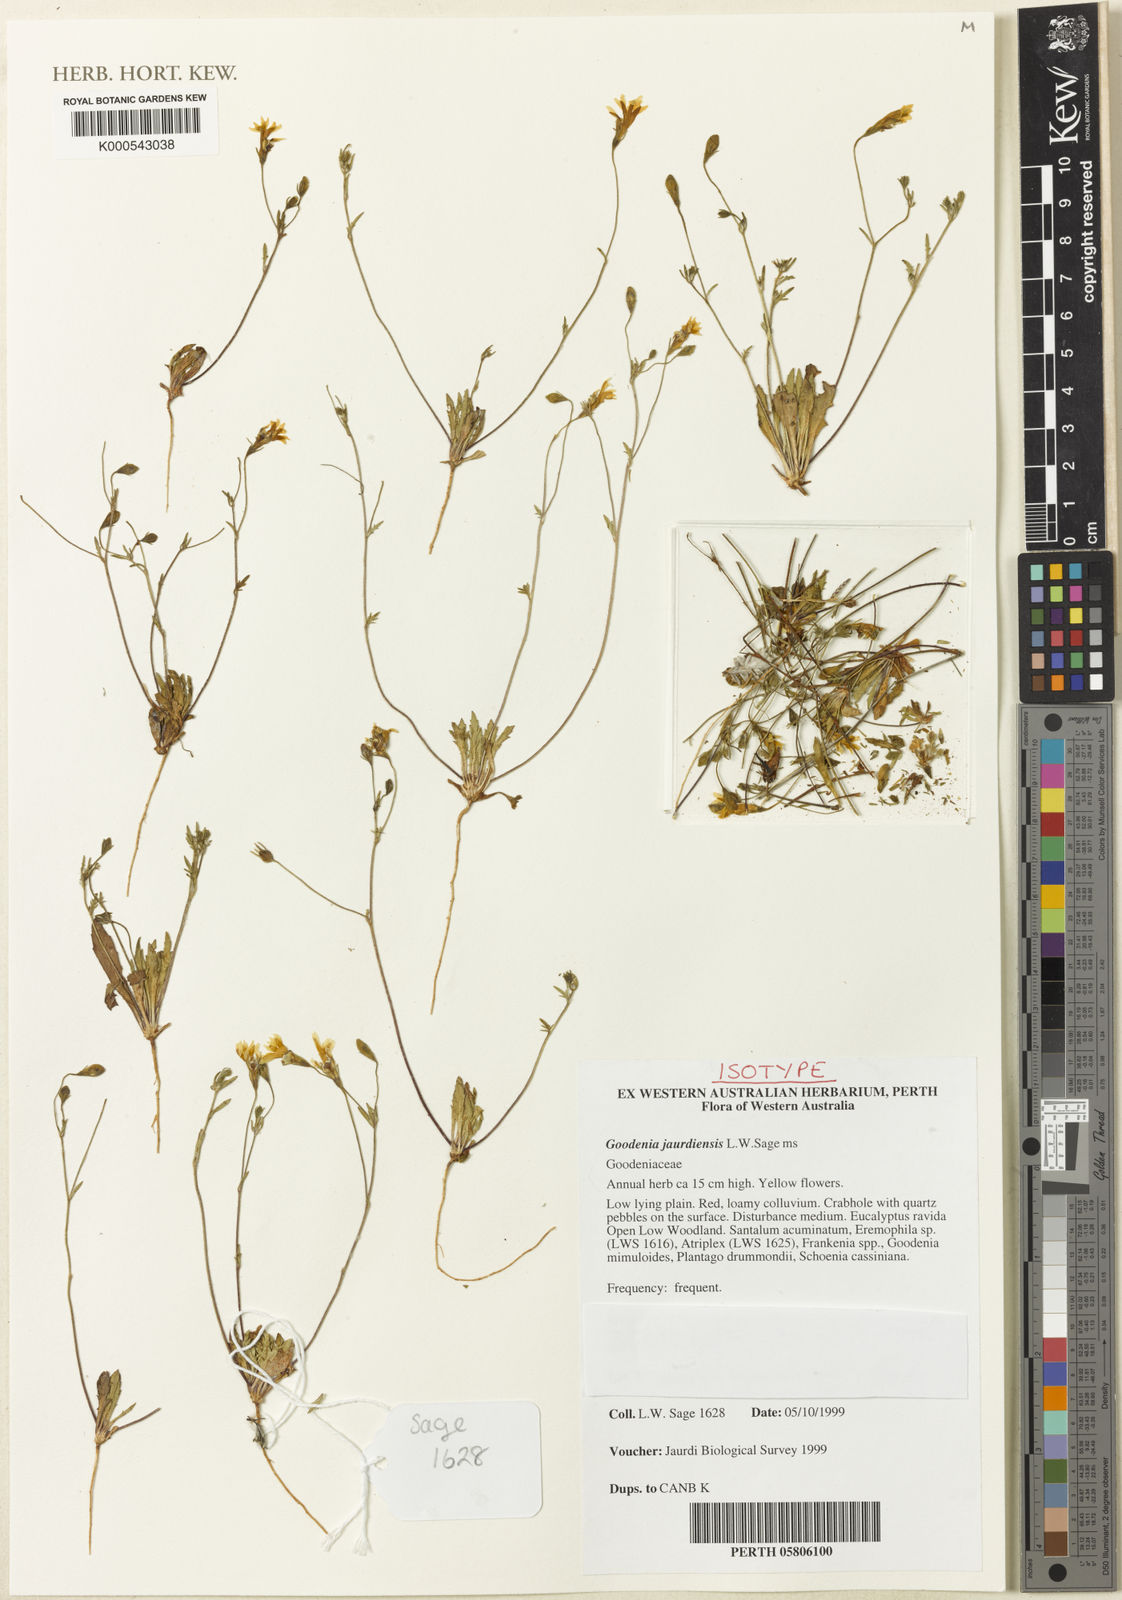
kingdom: Plantae
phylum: Tracheophyta
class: Magnoliopsida
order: Asterales
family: Goodeniaceae
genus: Goodenia
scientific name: Goodenia jaurdiensis
